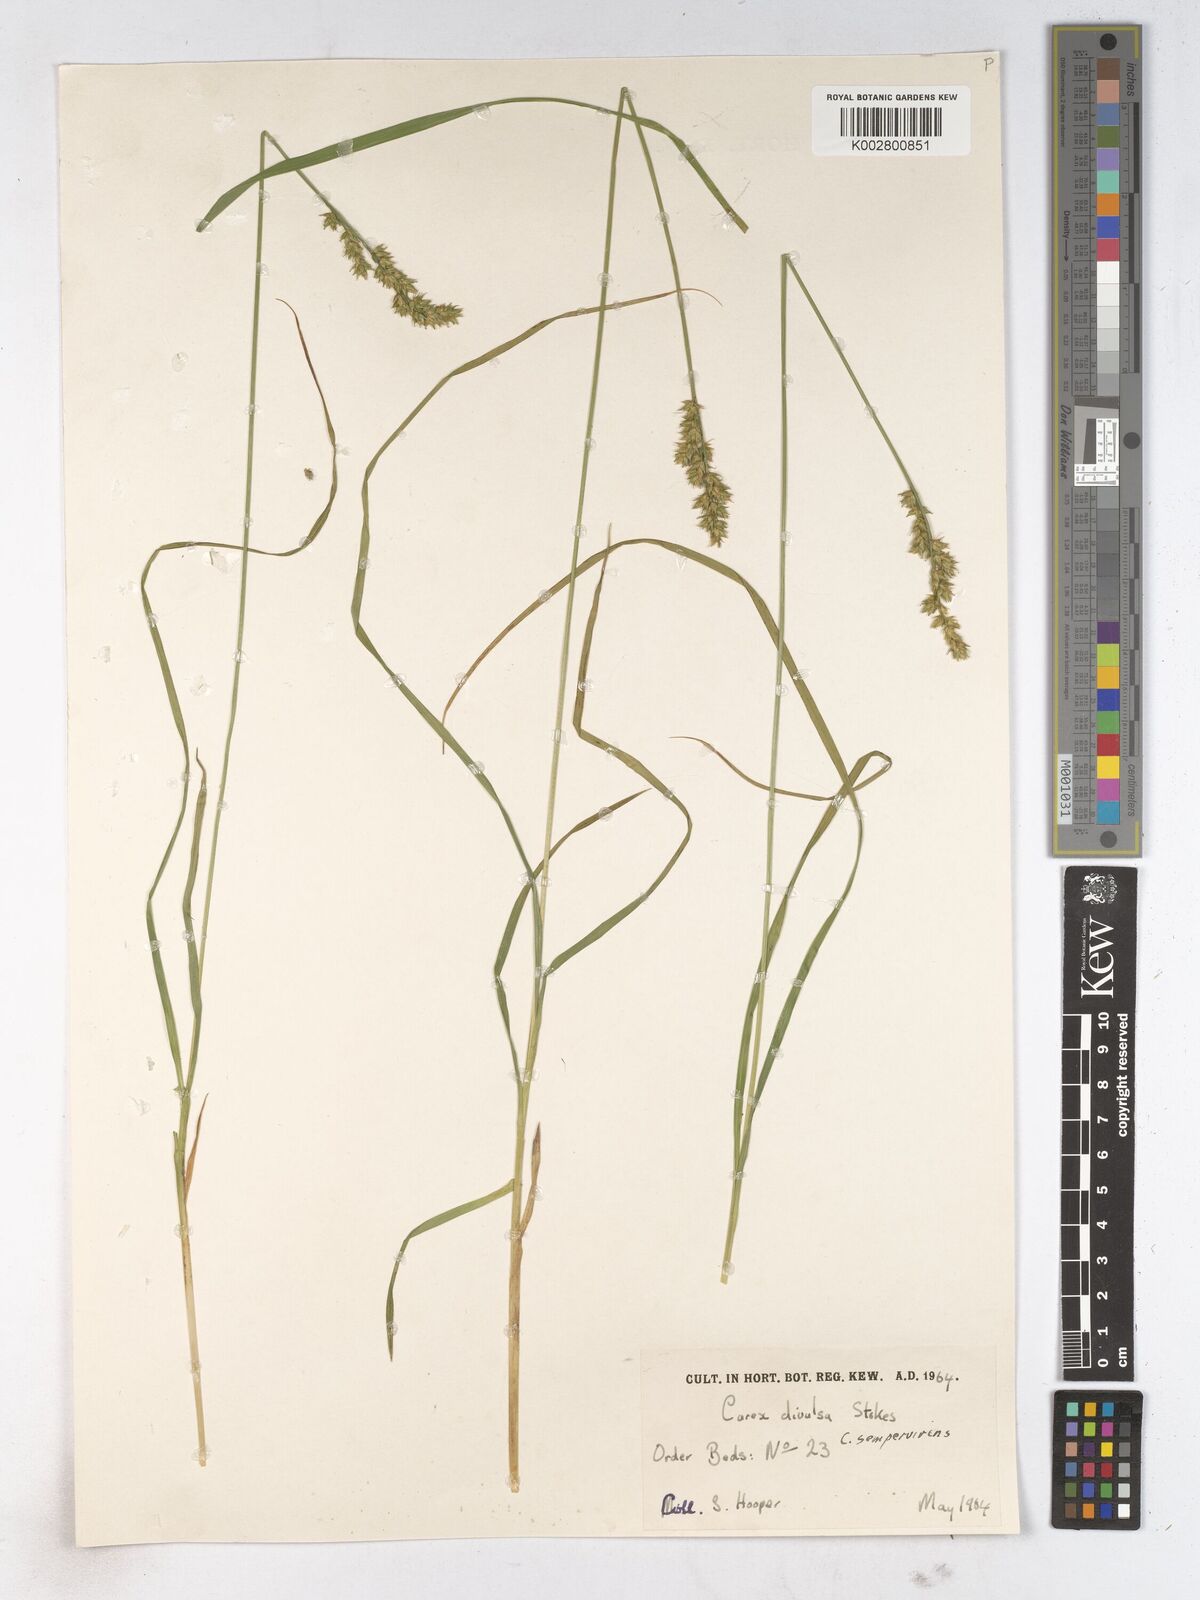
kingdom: Plantae
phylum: Tracheophyta
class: Liliopsida
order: Poales
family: Cyperaceae
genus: Carex
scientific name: Carex comans
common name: Longwood tussock
